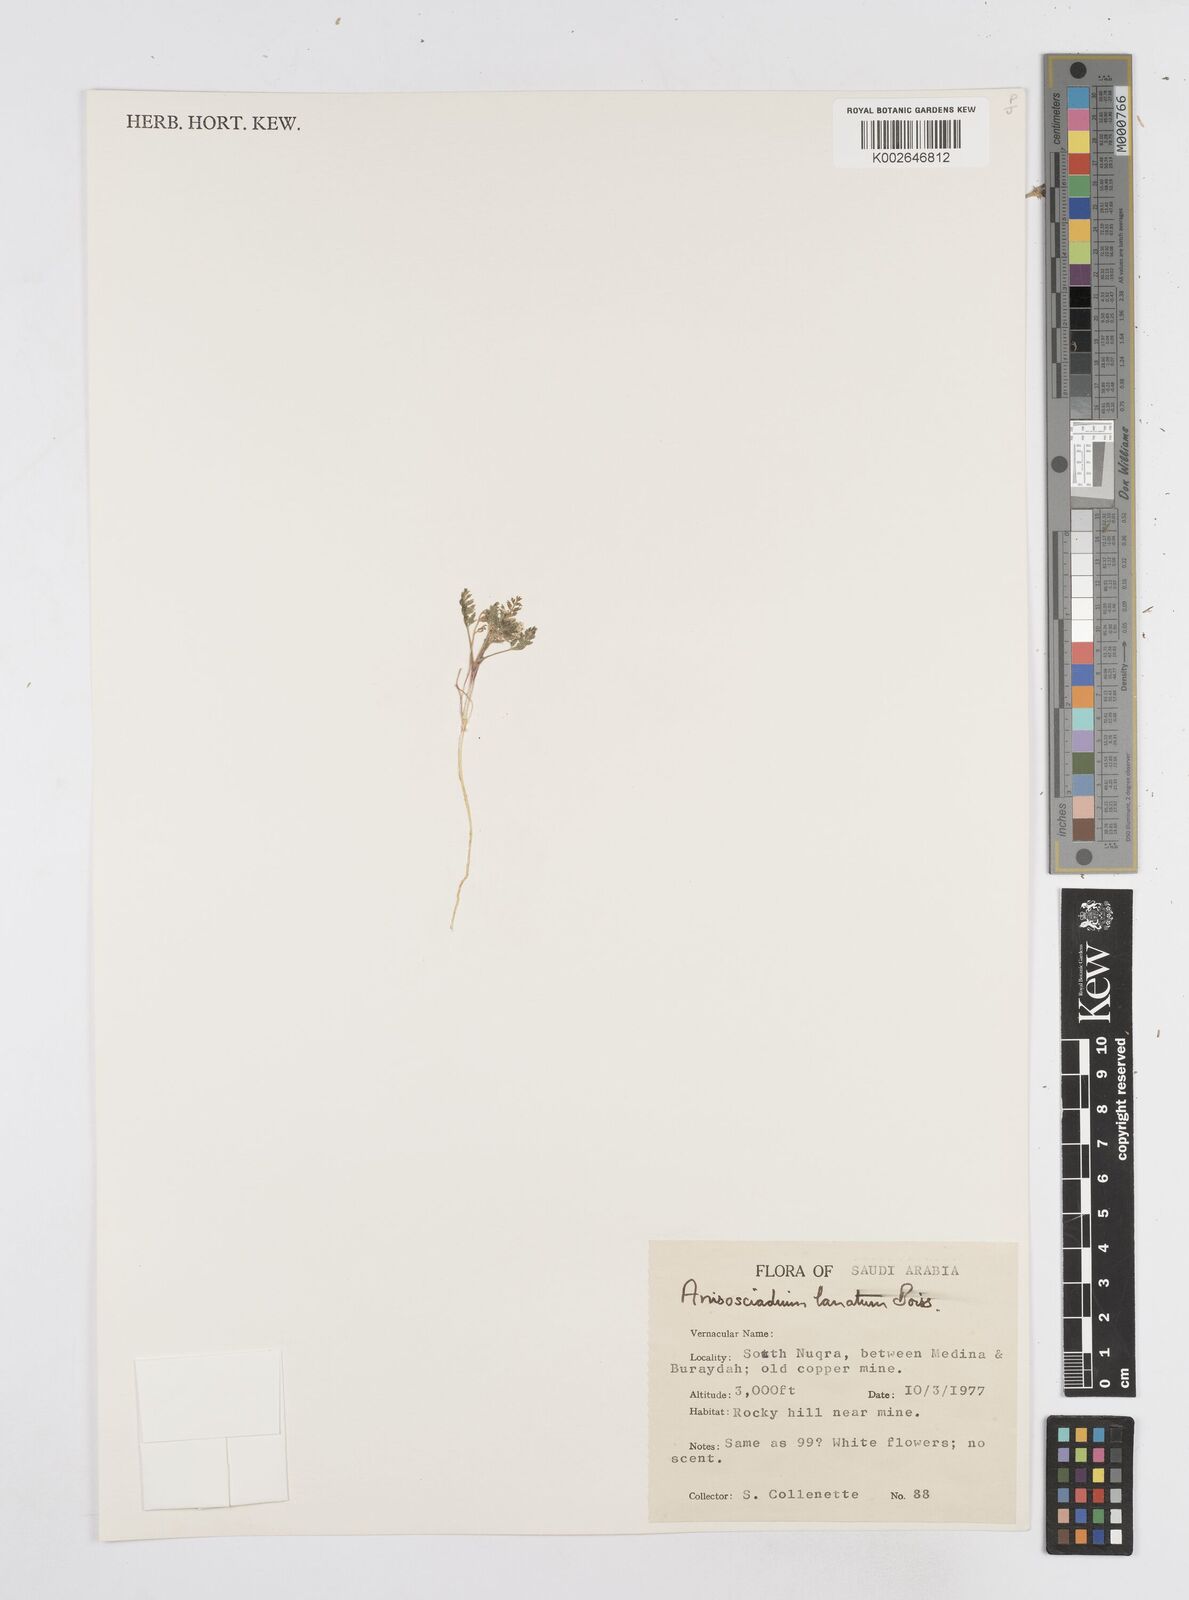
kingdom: Plantae
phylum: Tracheophyta
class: Magnoliopsida
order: Apiales
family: Apiaceae
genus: Anisosciadium
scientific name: Anisosciadium lanatum
